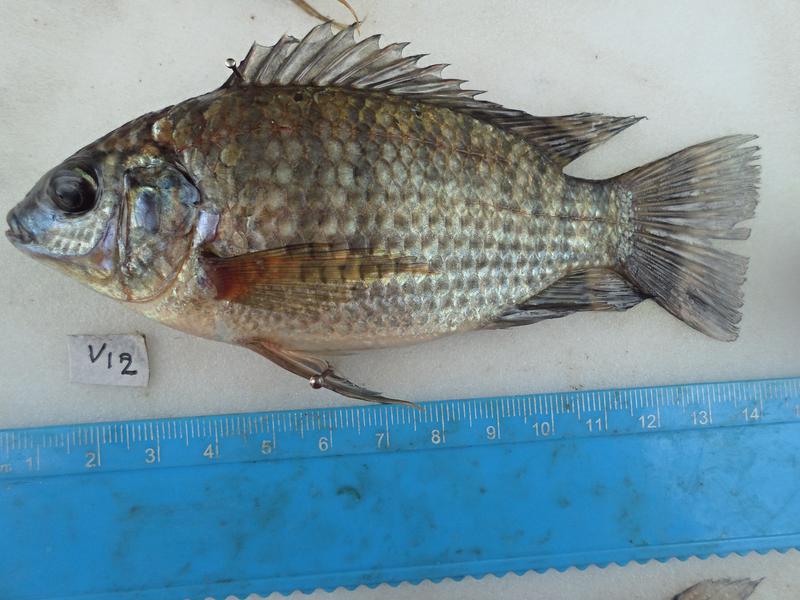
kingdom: Animalia
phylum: Chordata
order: Perciformes
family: Cichlidae
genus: Oreochromis
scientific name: Oreochromis leucostictus
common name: Blue spotted tilapia
